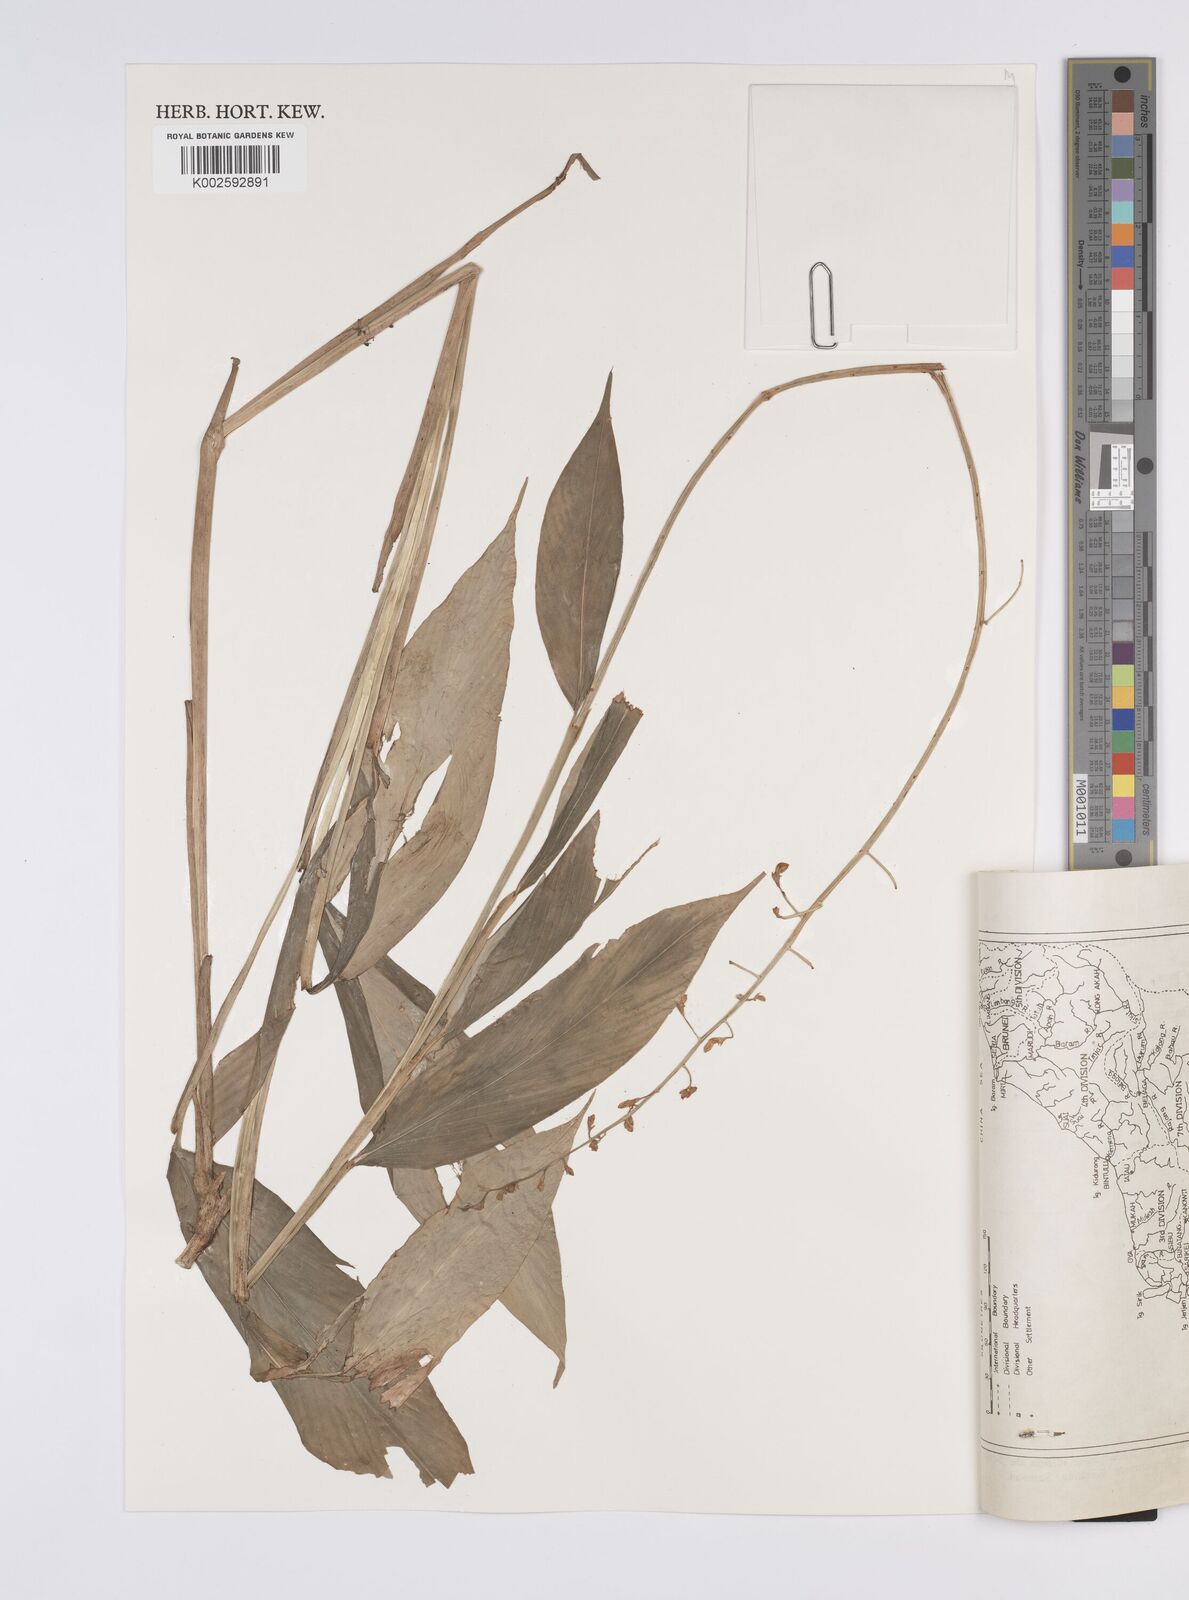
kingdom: Plantae
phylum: Tracheophyta
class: Liliopsida
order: Zingiberales
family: Zingiberaceae
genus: Globba
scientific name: Globba francisci
